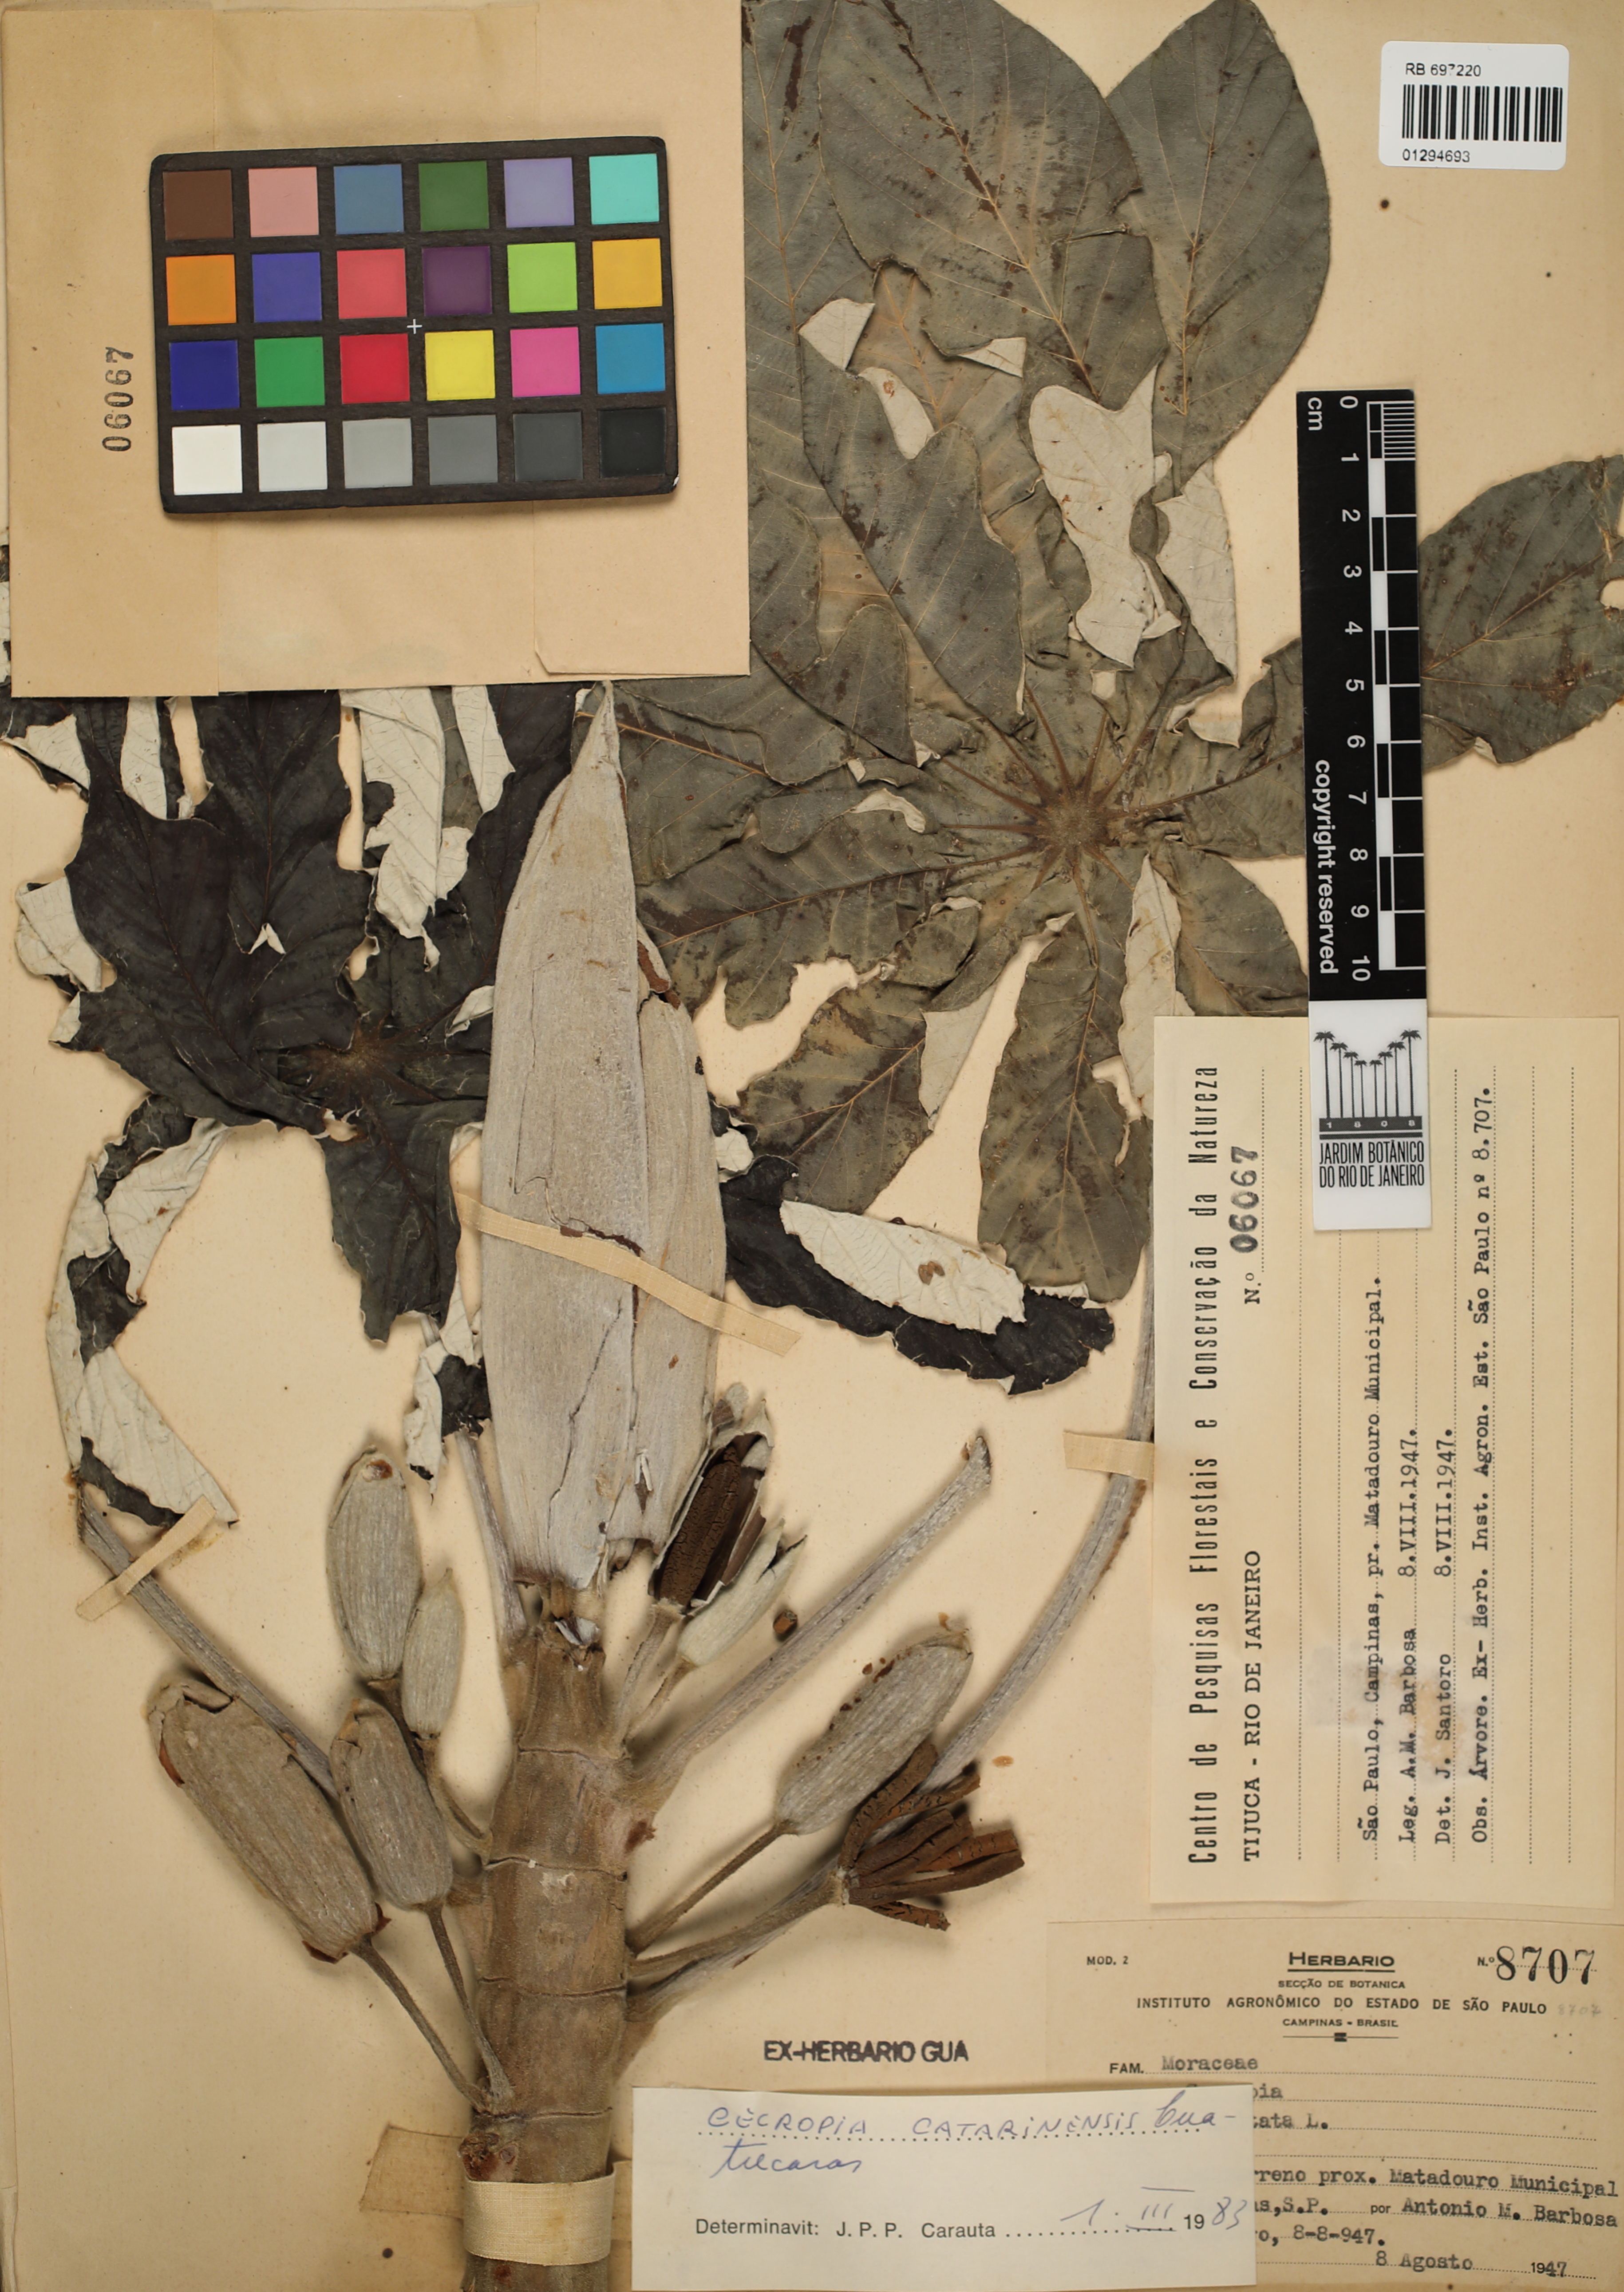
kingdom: Plantae
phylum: Tracheophyta
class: Magnoliopsida
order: Rosales
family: Urticaceae
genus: Cecropia
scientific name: Cecropia pachystachya
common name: Ambay pumpwood
